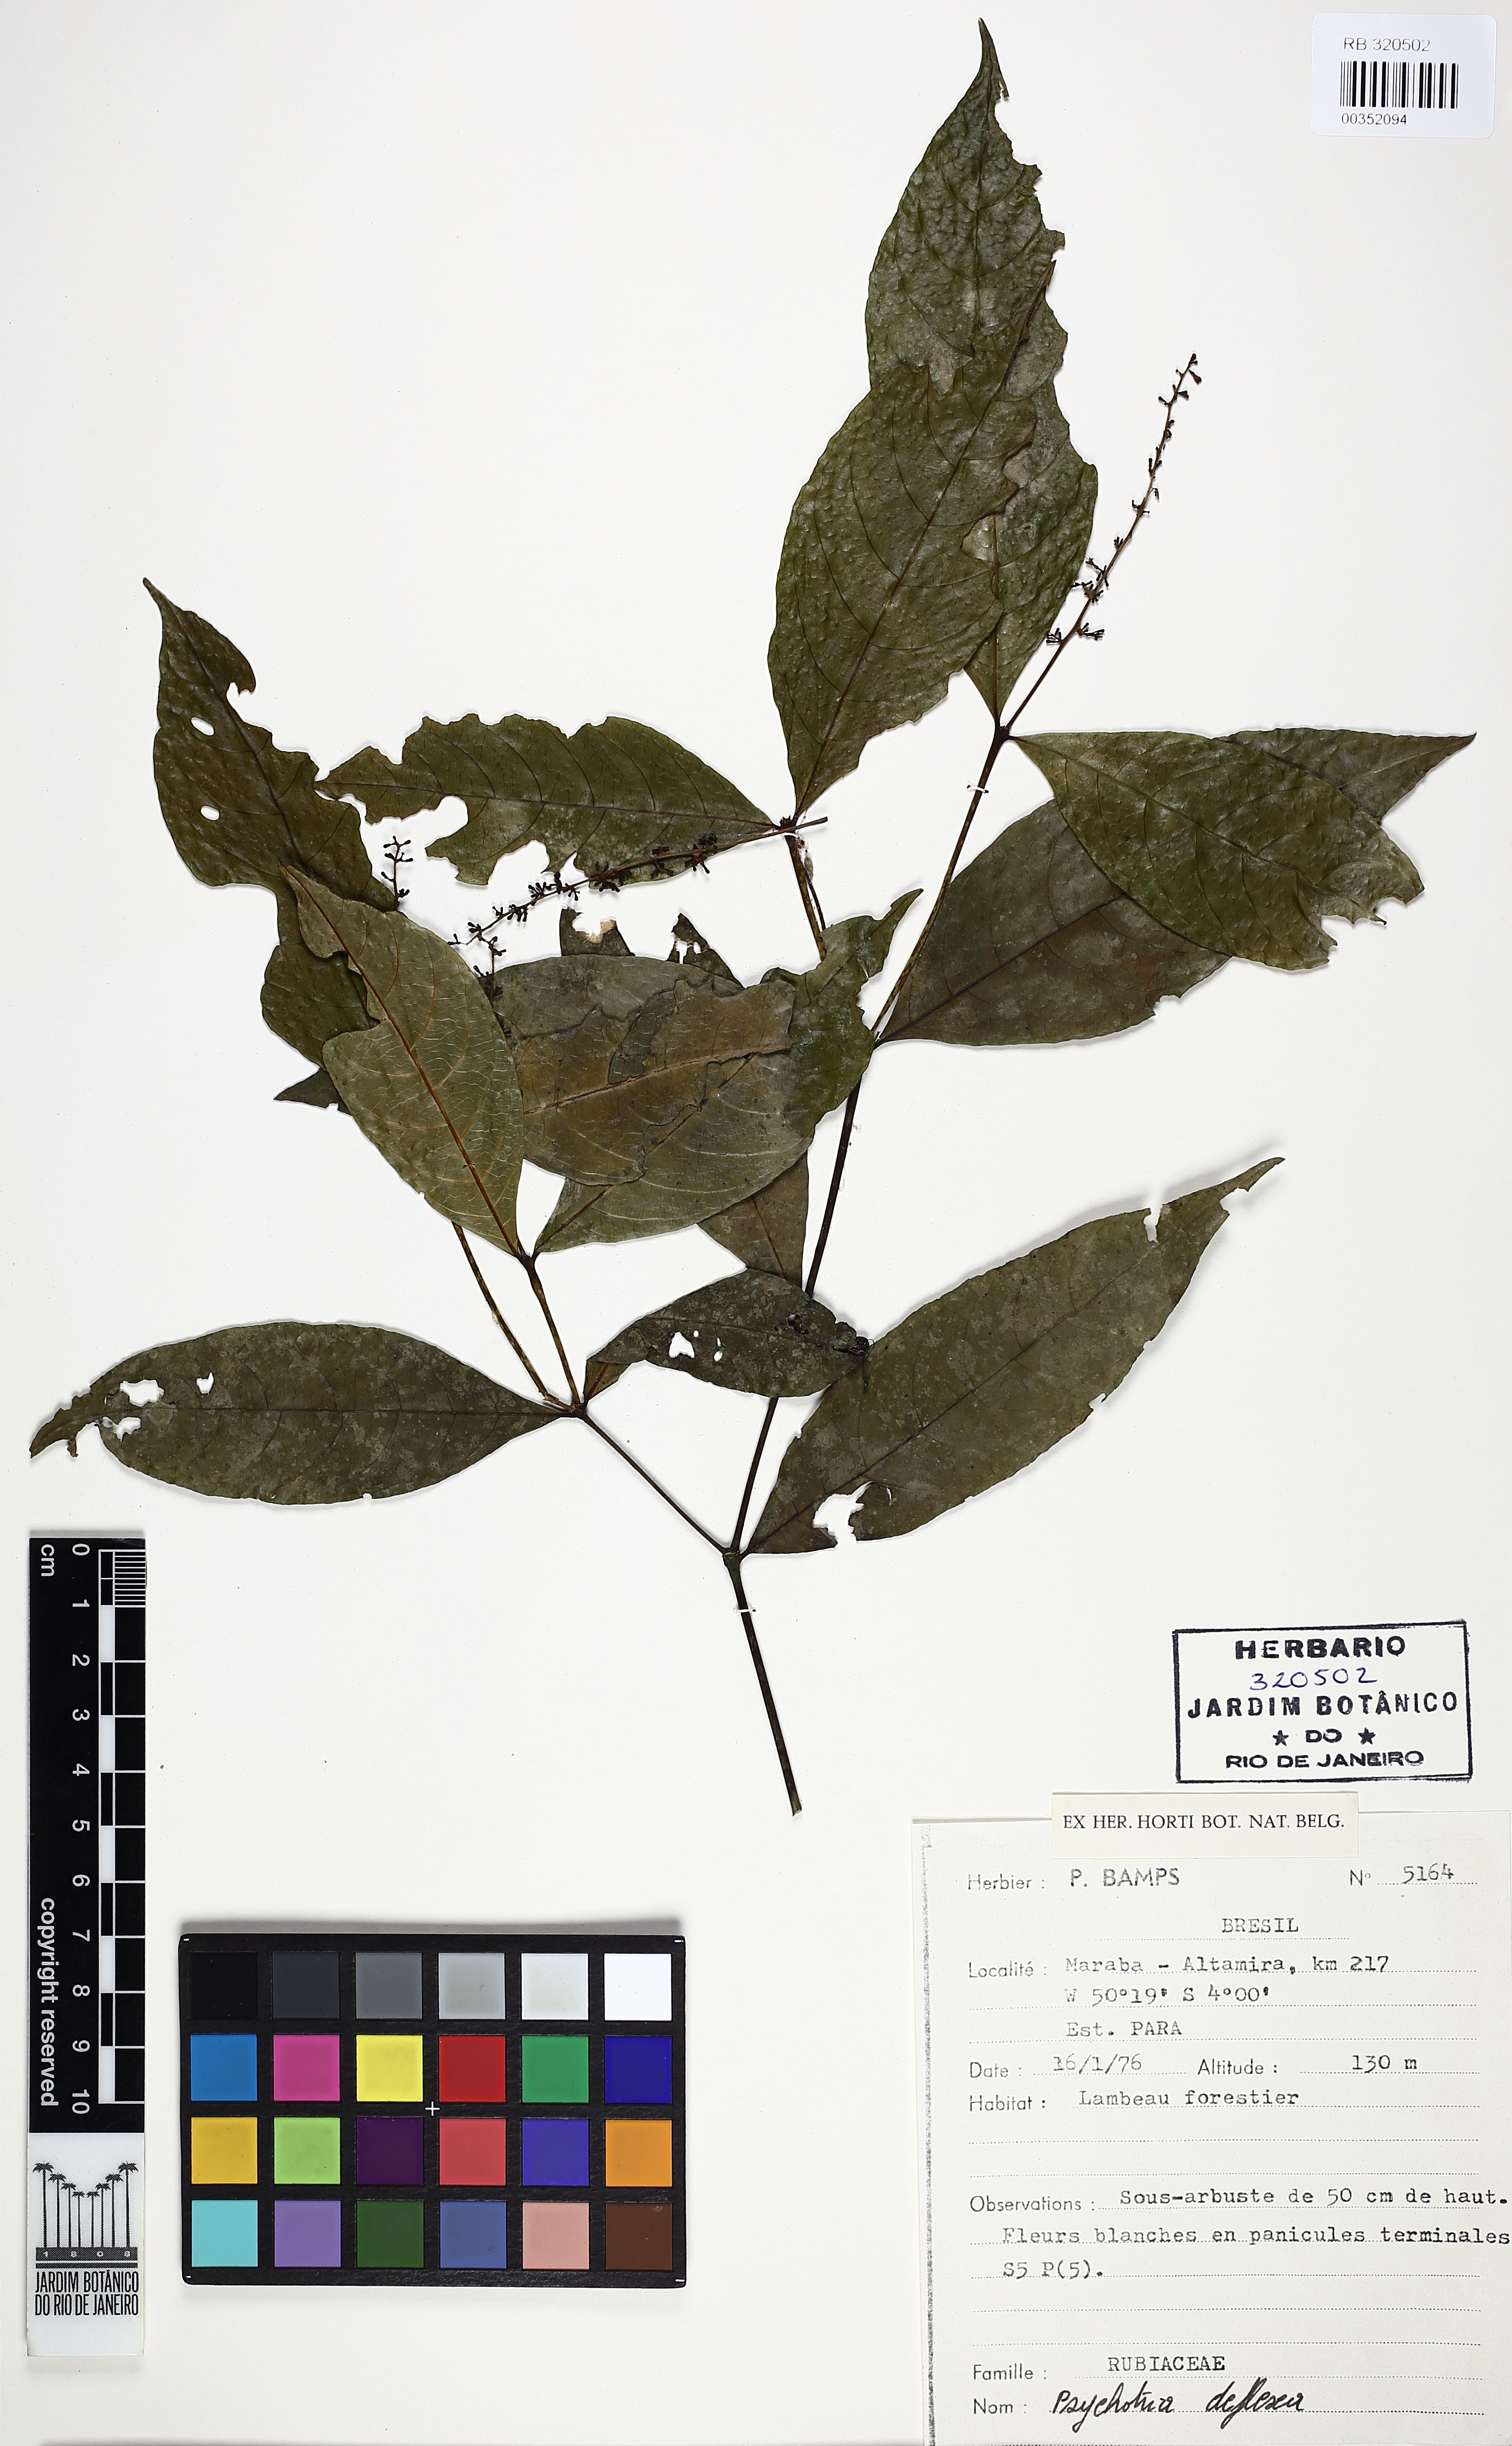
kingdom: Plantae
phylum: Tracheophyta
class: Magnoliopsida
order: Gentianales
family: Rubiaceae
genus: Palicourea
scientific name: Palicourea deflexa
